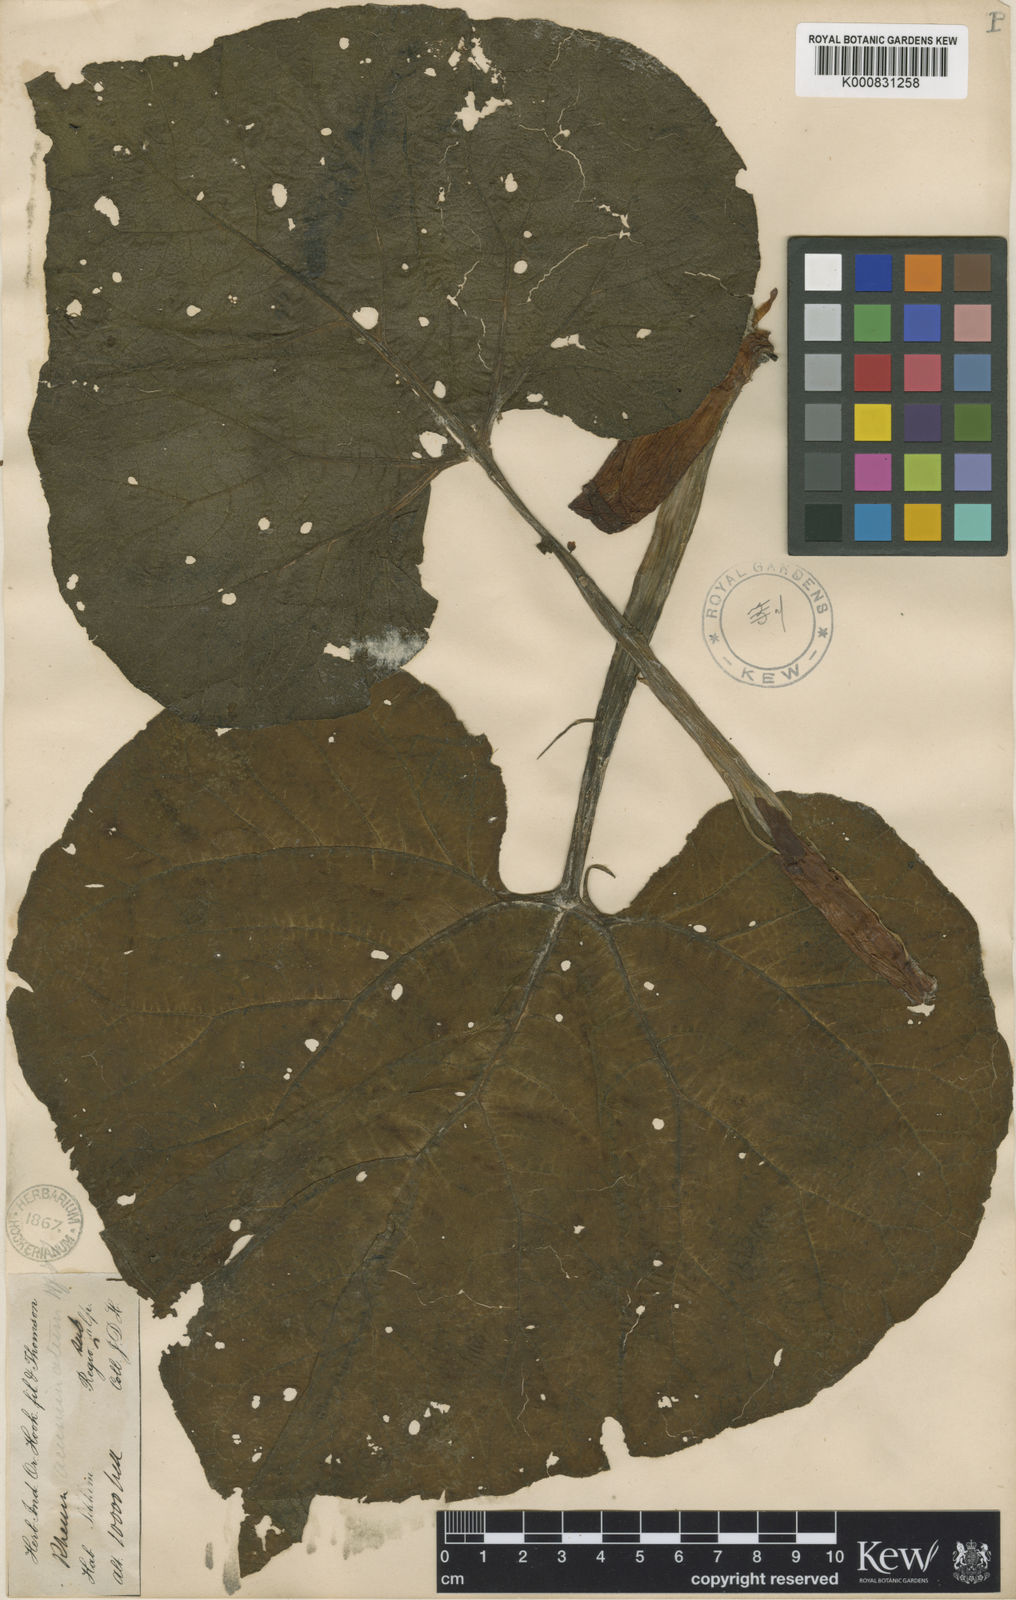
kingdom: Plantae
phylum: Tracheophyta
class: Magnoliopsida
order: Caryophyllales
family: Polygonaceae
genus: Rheum
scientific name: Rheum acuminatum
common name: Himalayan rhubarb
